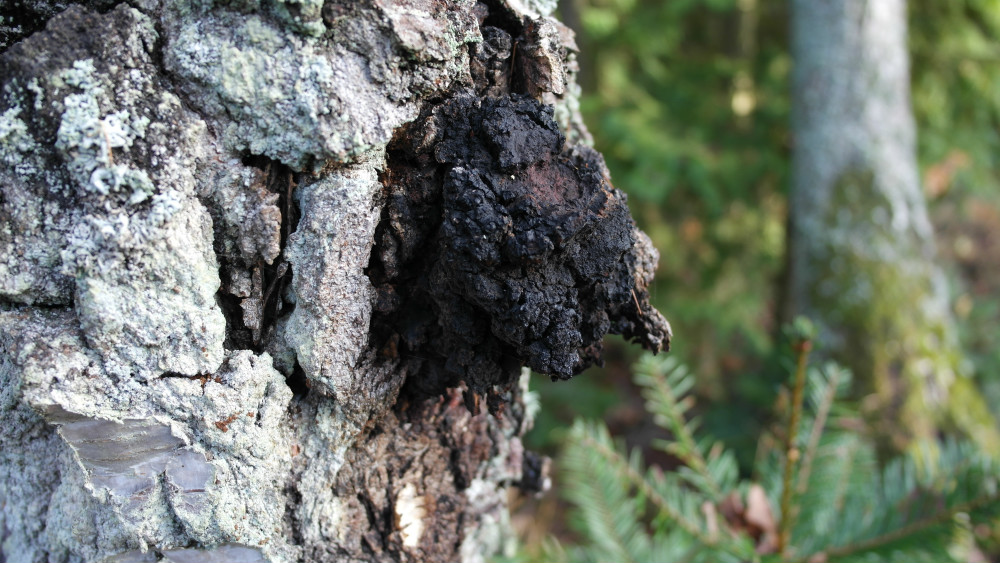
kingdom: Fungi
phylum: Basidiomycota
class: Agaricomycetes
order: Hymenochaetales
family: Hymenochaetaceae
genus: Inonotus
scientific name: Inonotus obliquus
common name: birke-spejlporesvamp
